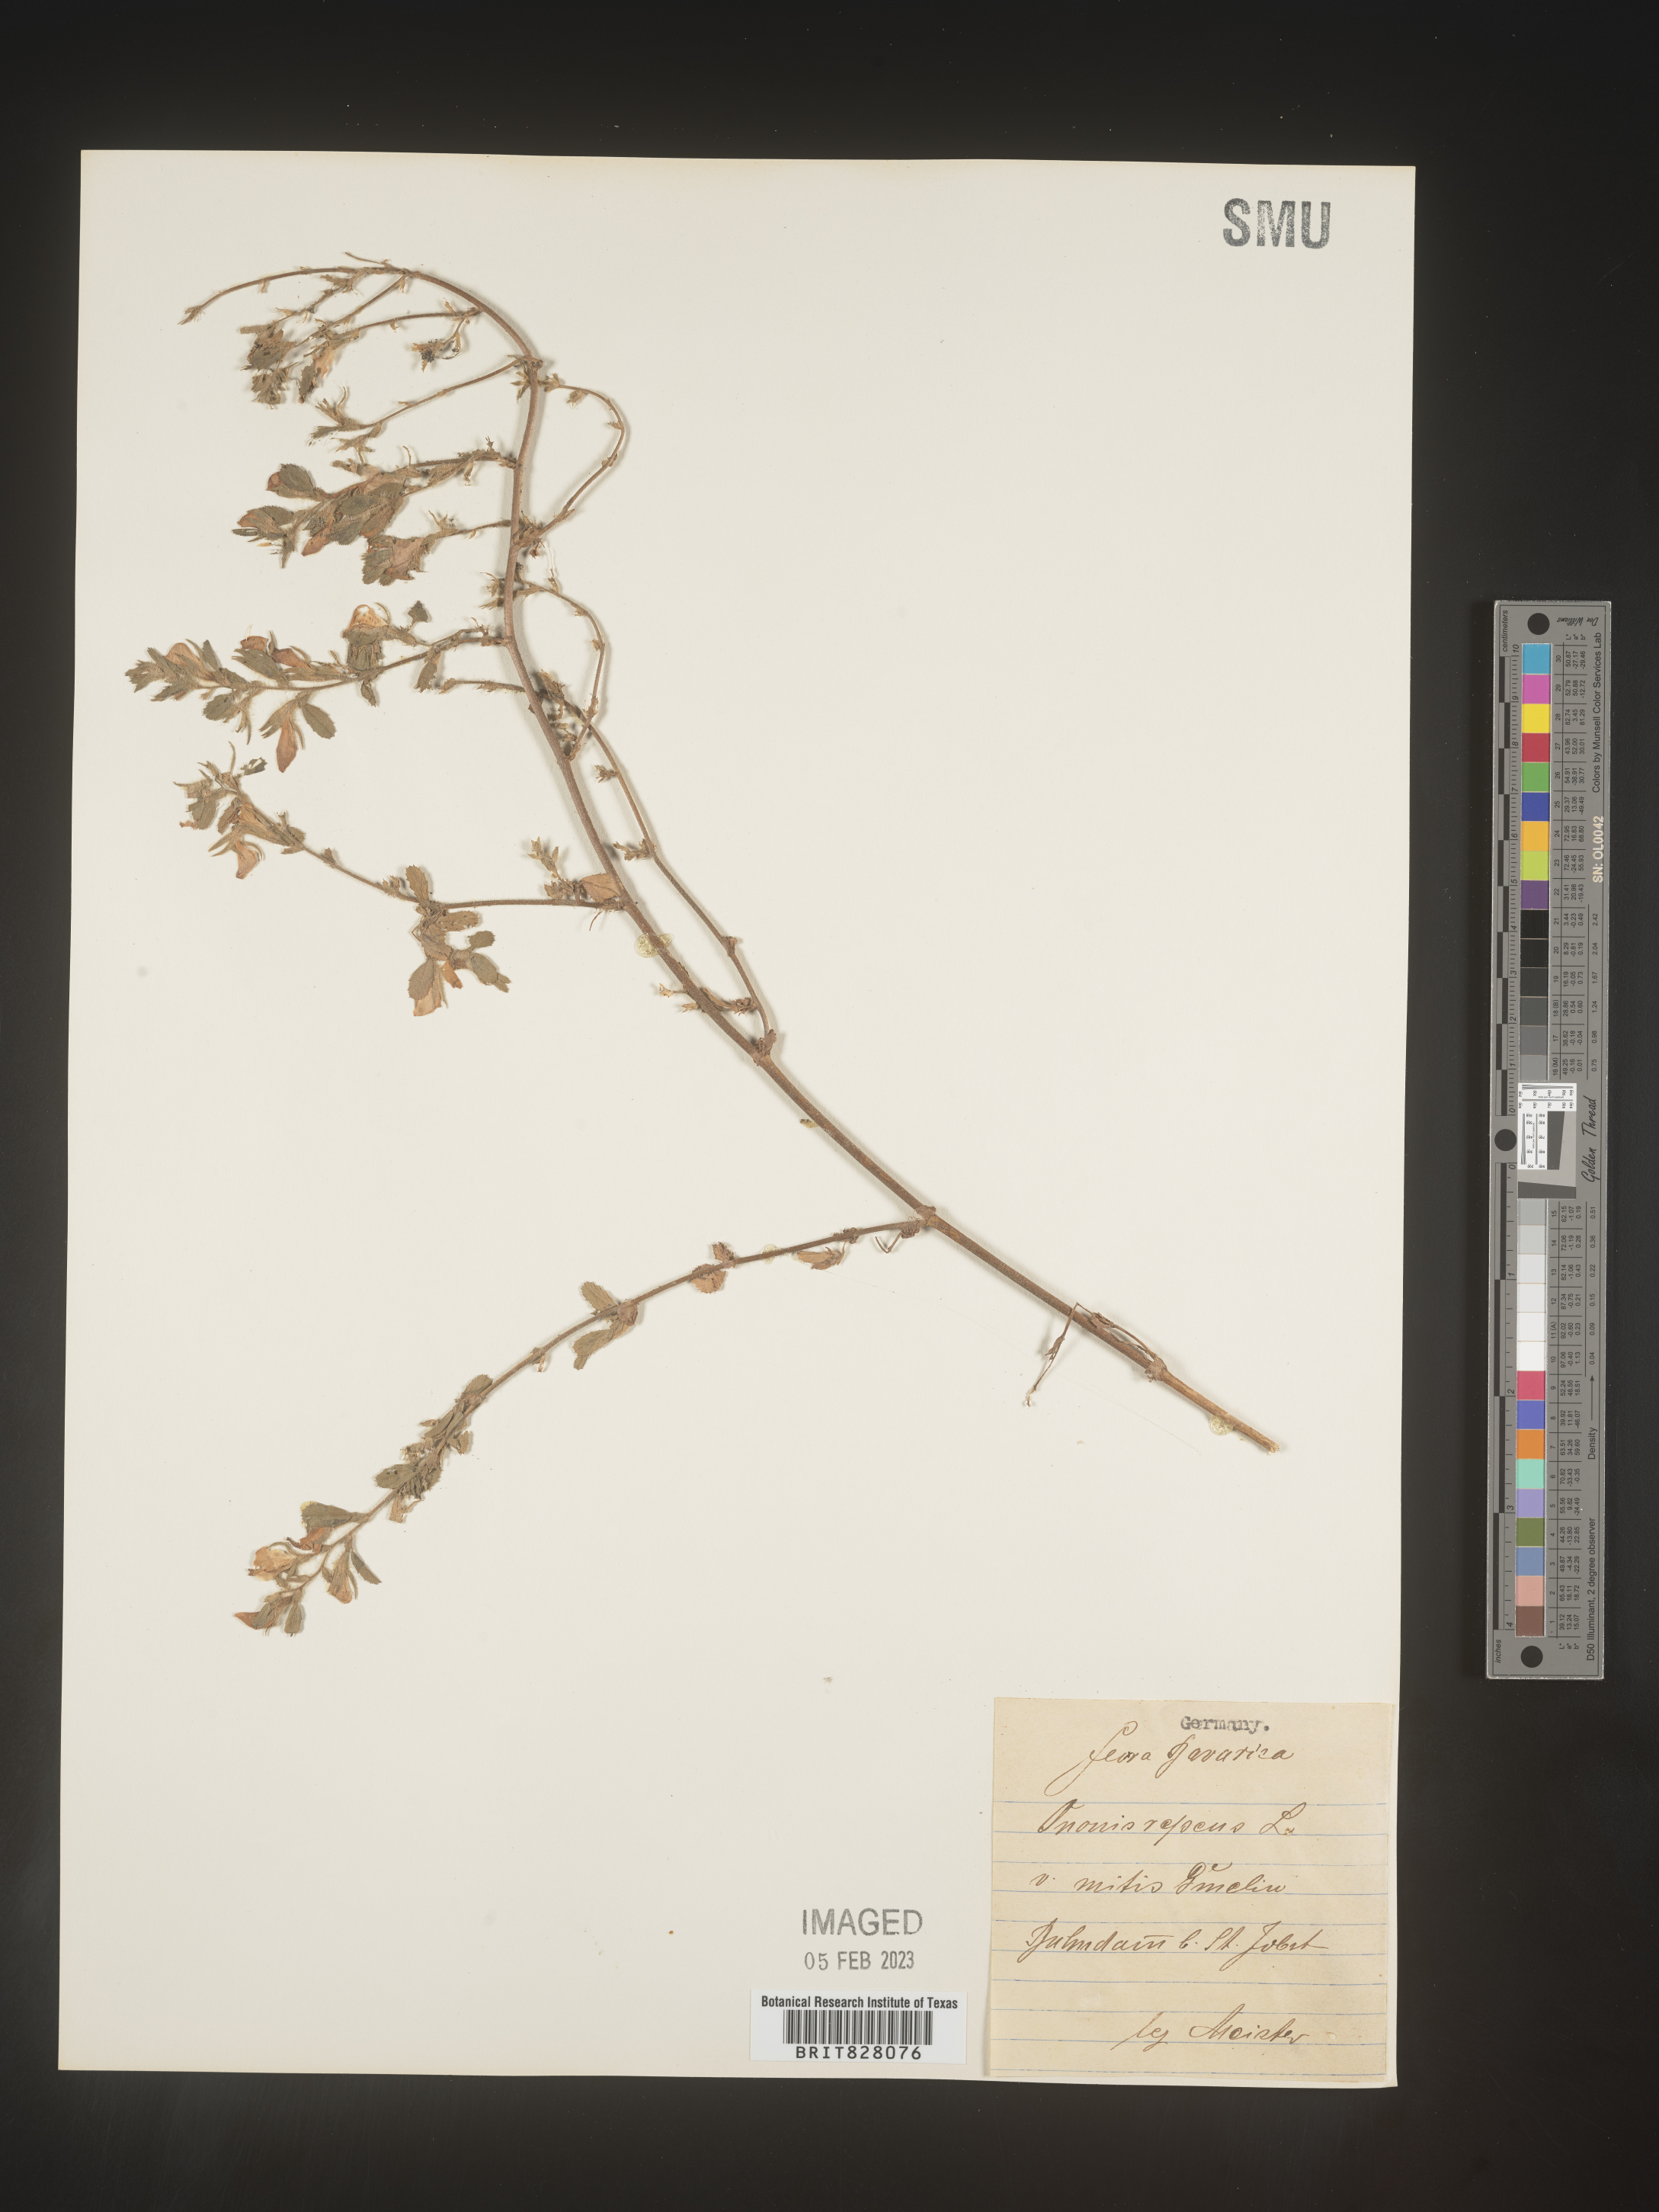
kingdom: Plantae
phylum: Tracheophyta
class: Magnoliopsida
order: Fabales
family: Fabaceae
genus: Ononis
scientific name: Ononis
